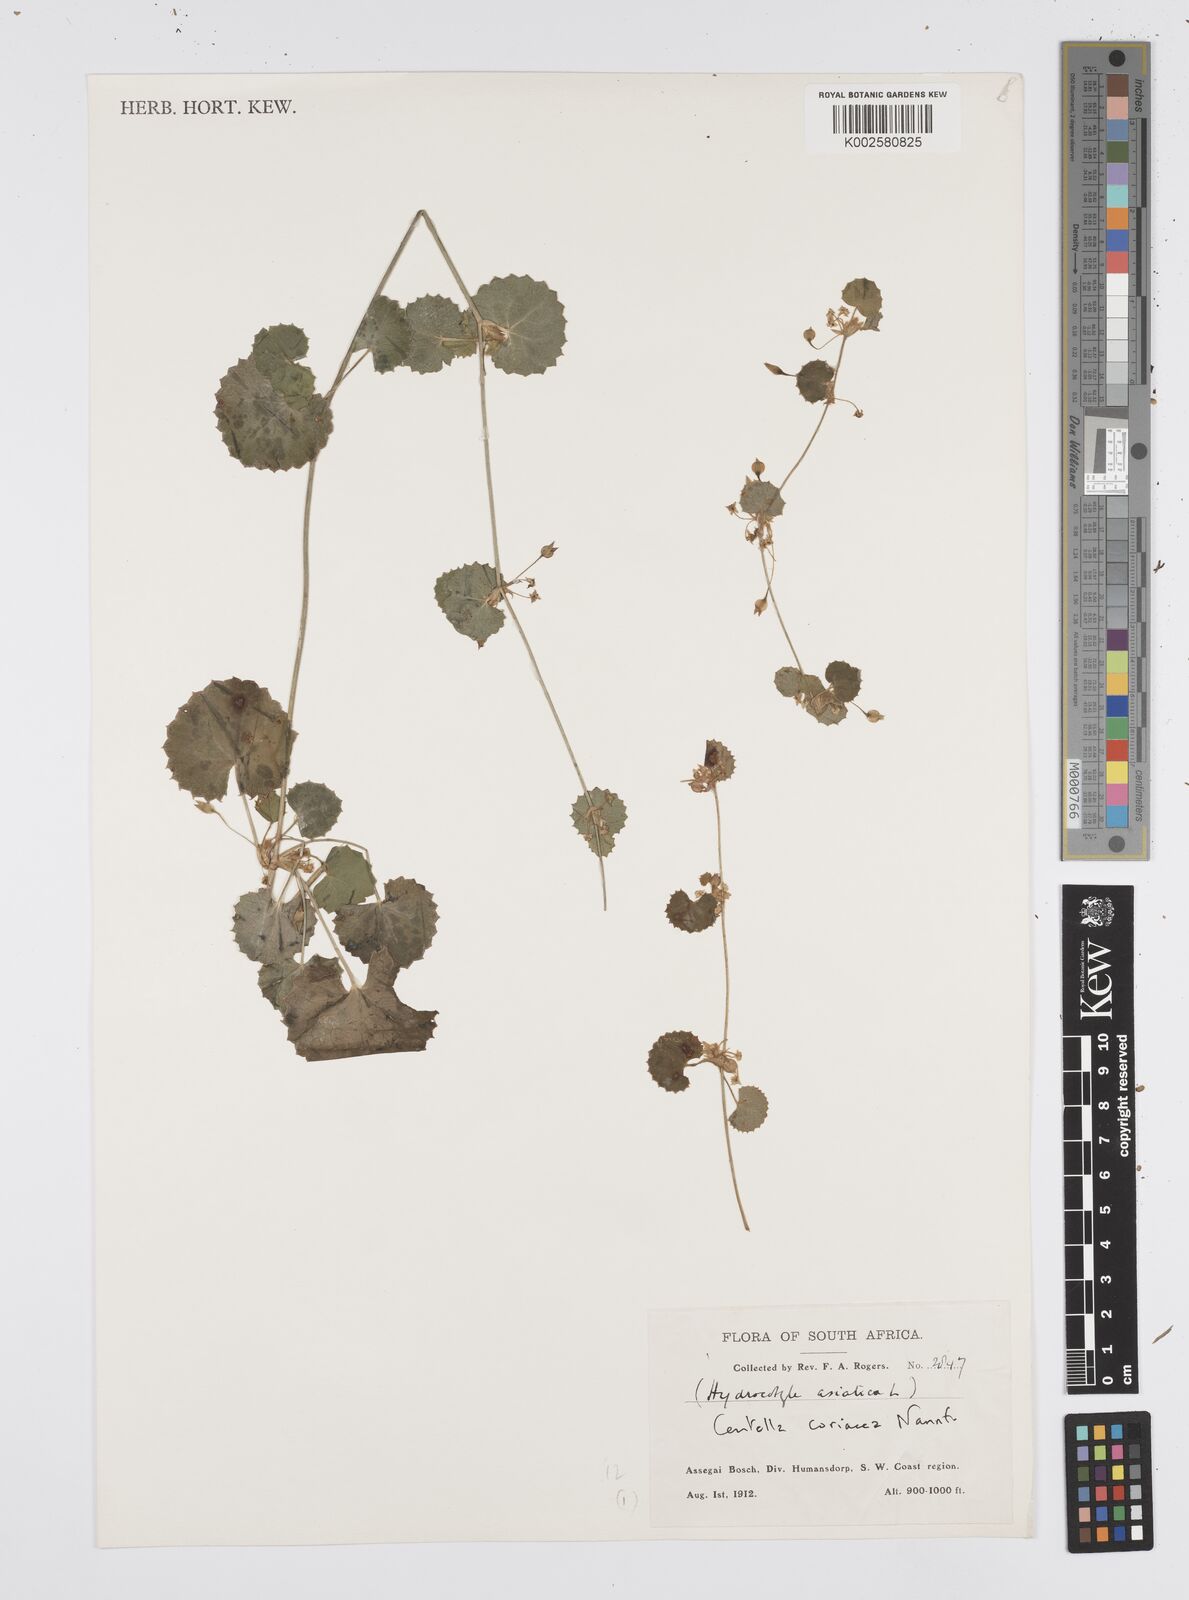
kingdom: Plantae
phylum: Tracheophyta
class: Magnoliopsida
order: Apiales
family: Apiaceae
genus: Centella
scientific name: Centella coriacea
